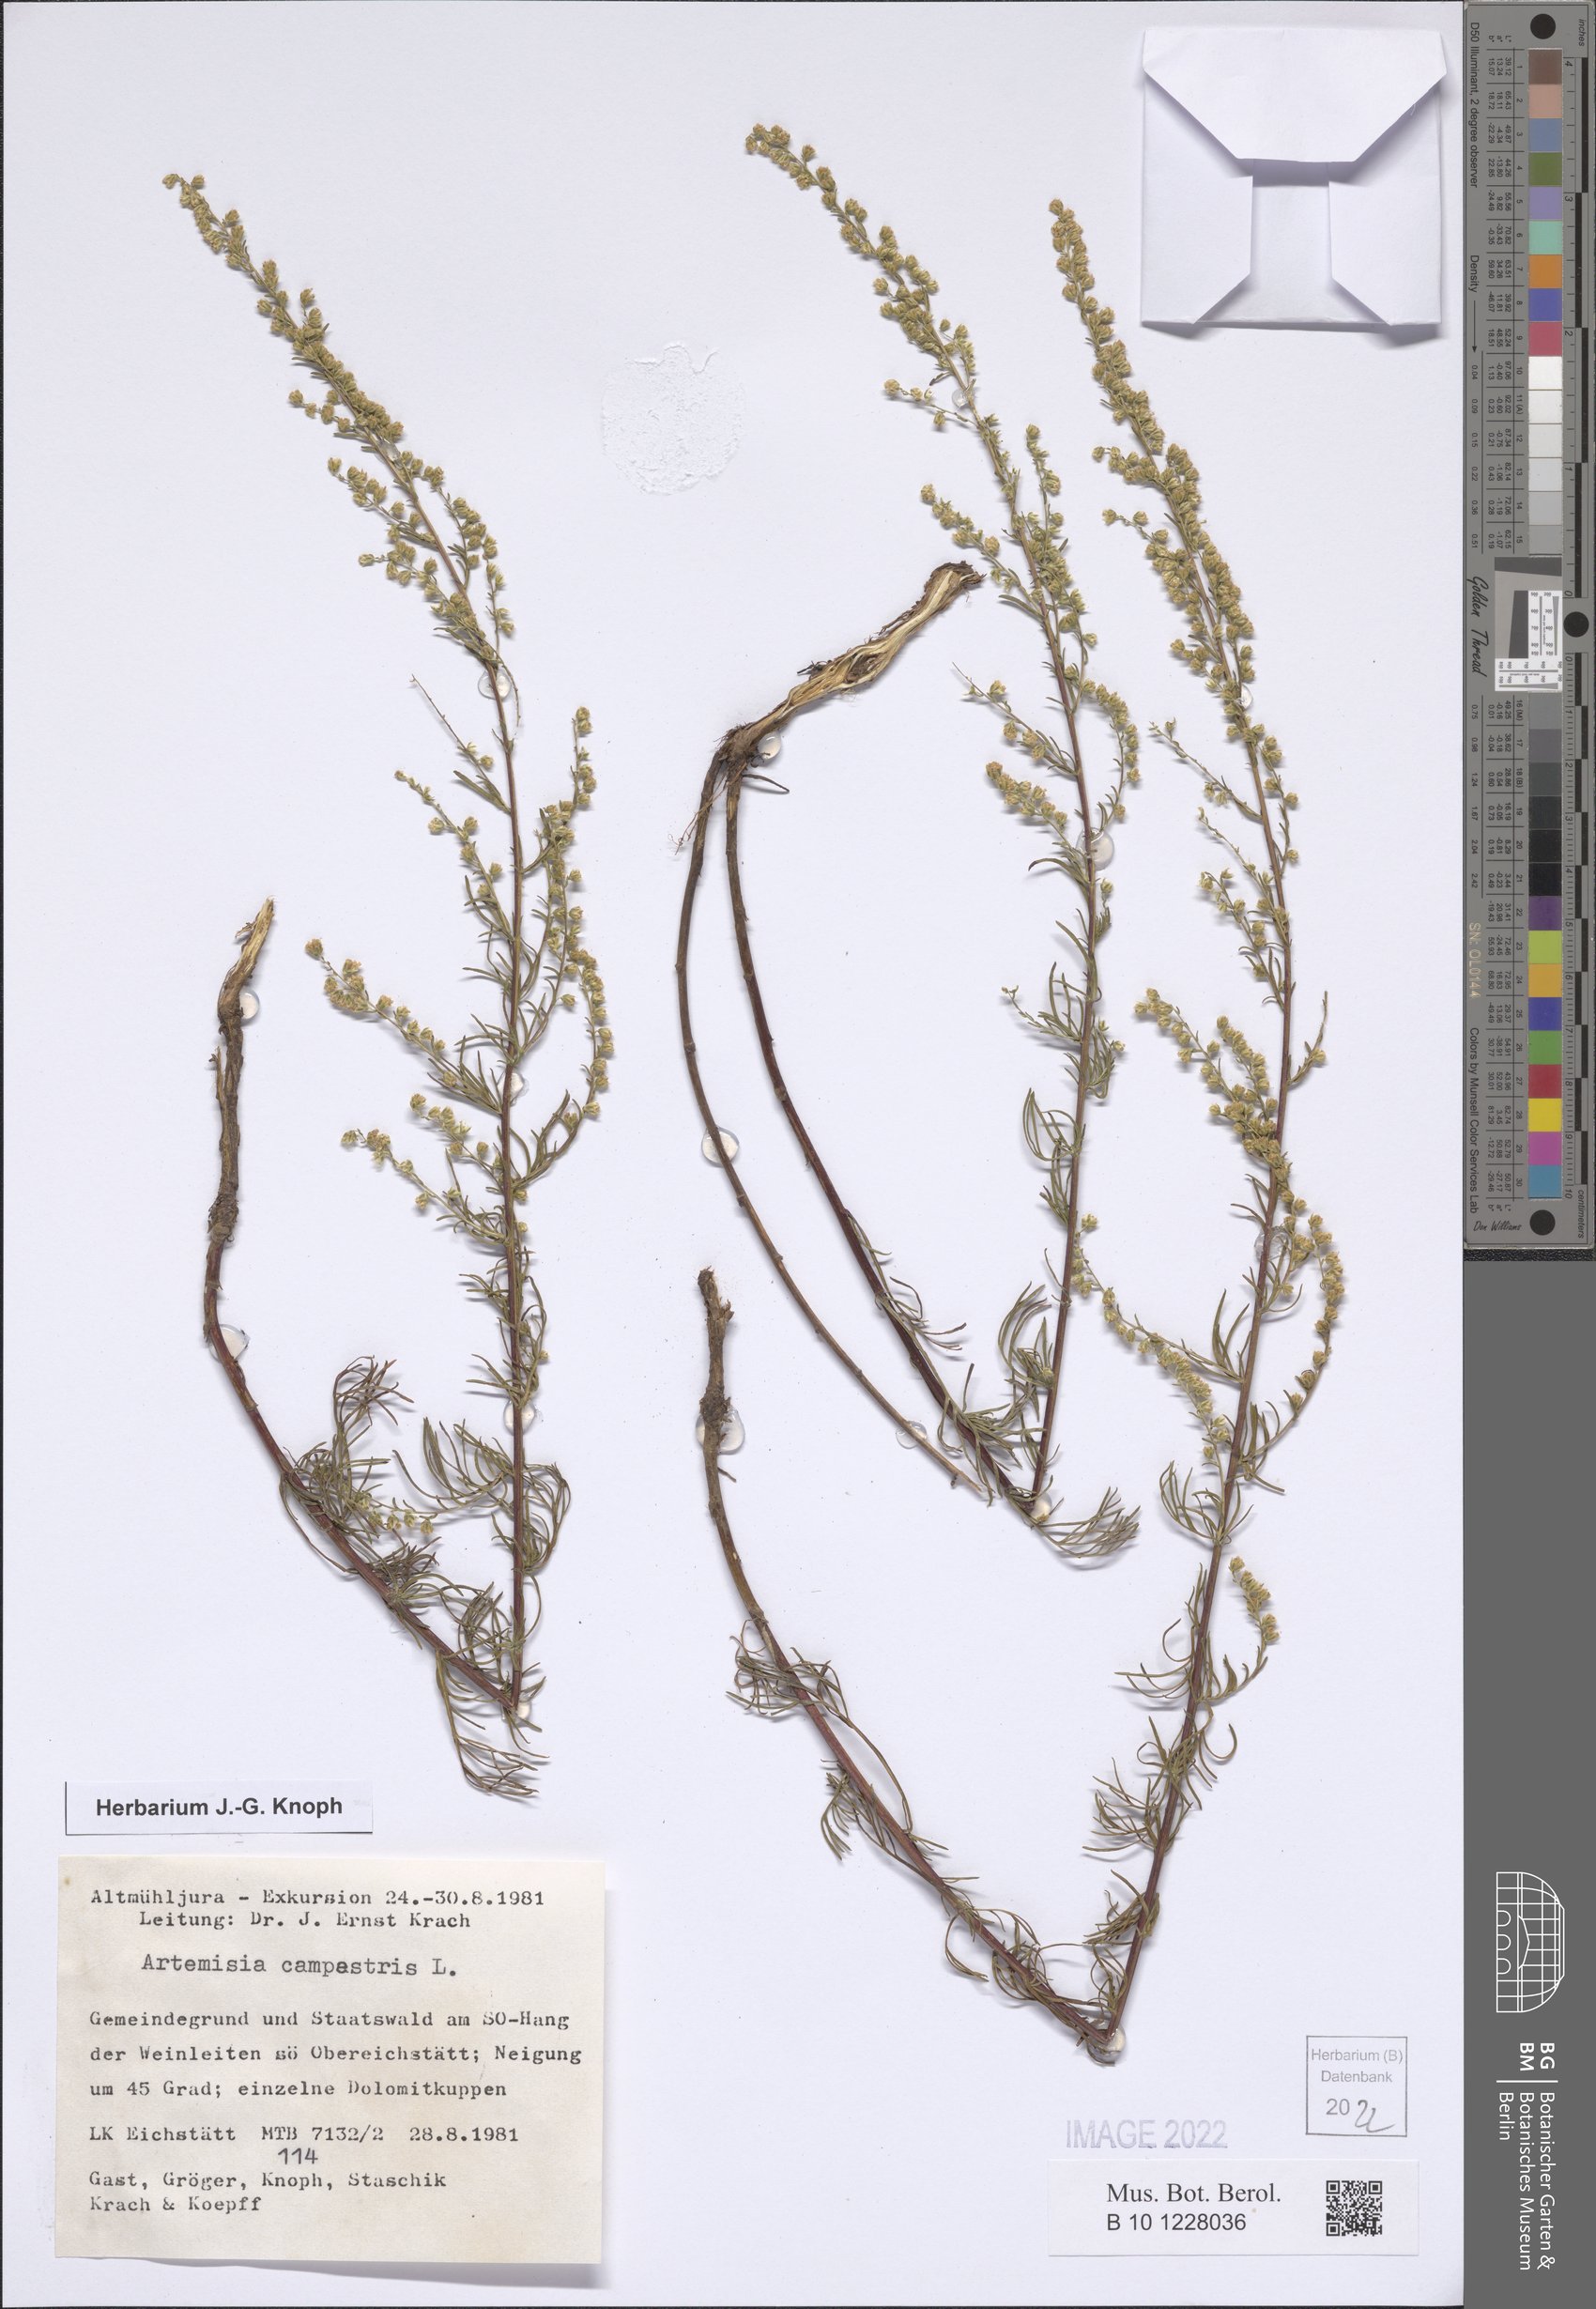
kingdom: Plantae
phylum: Tracheophyta
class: Magnoliopsida
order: Asterales
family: Asteraceae
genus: Artemisia
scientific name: Artemisia campestris
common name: Field wormwood
